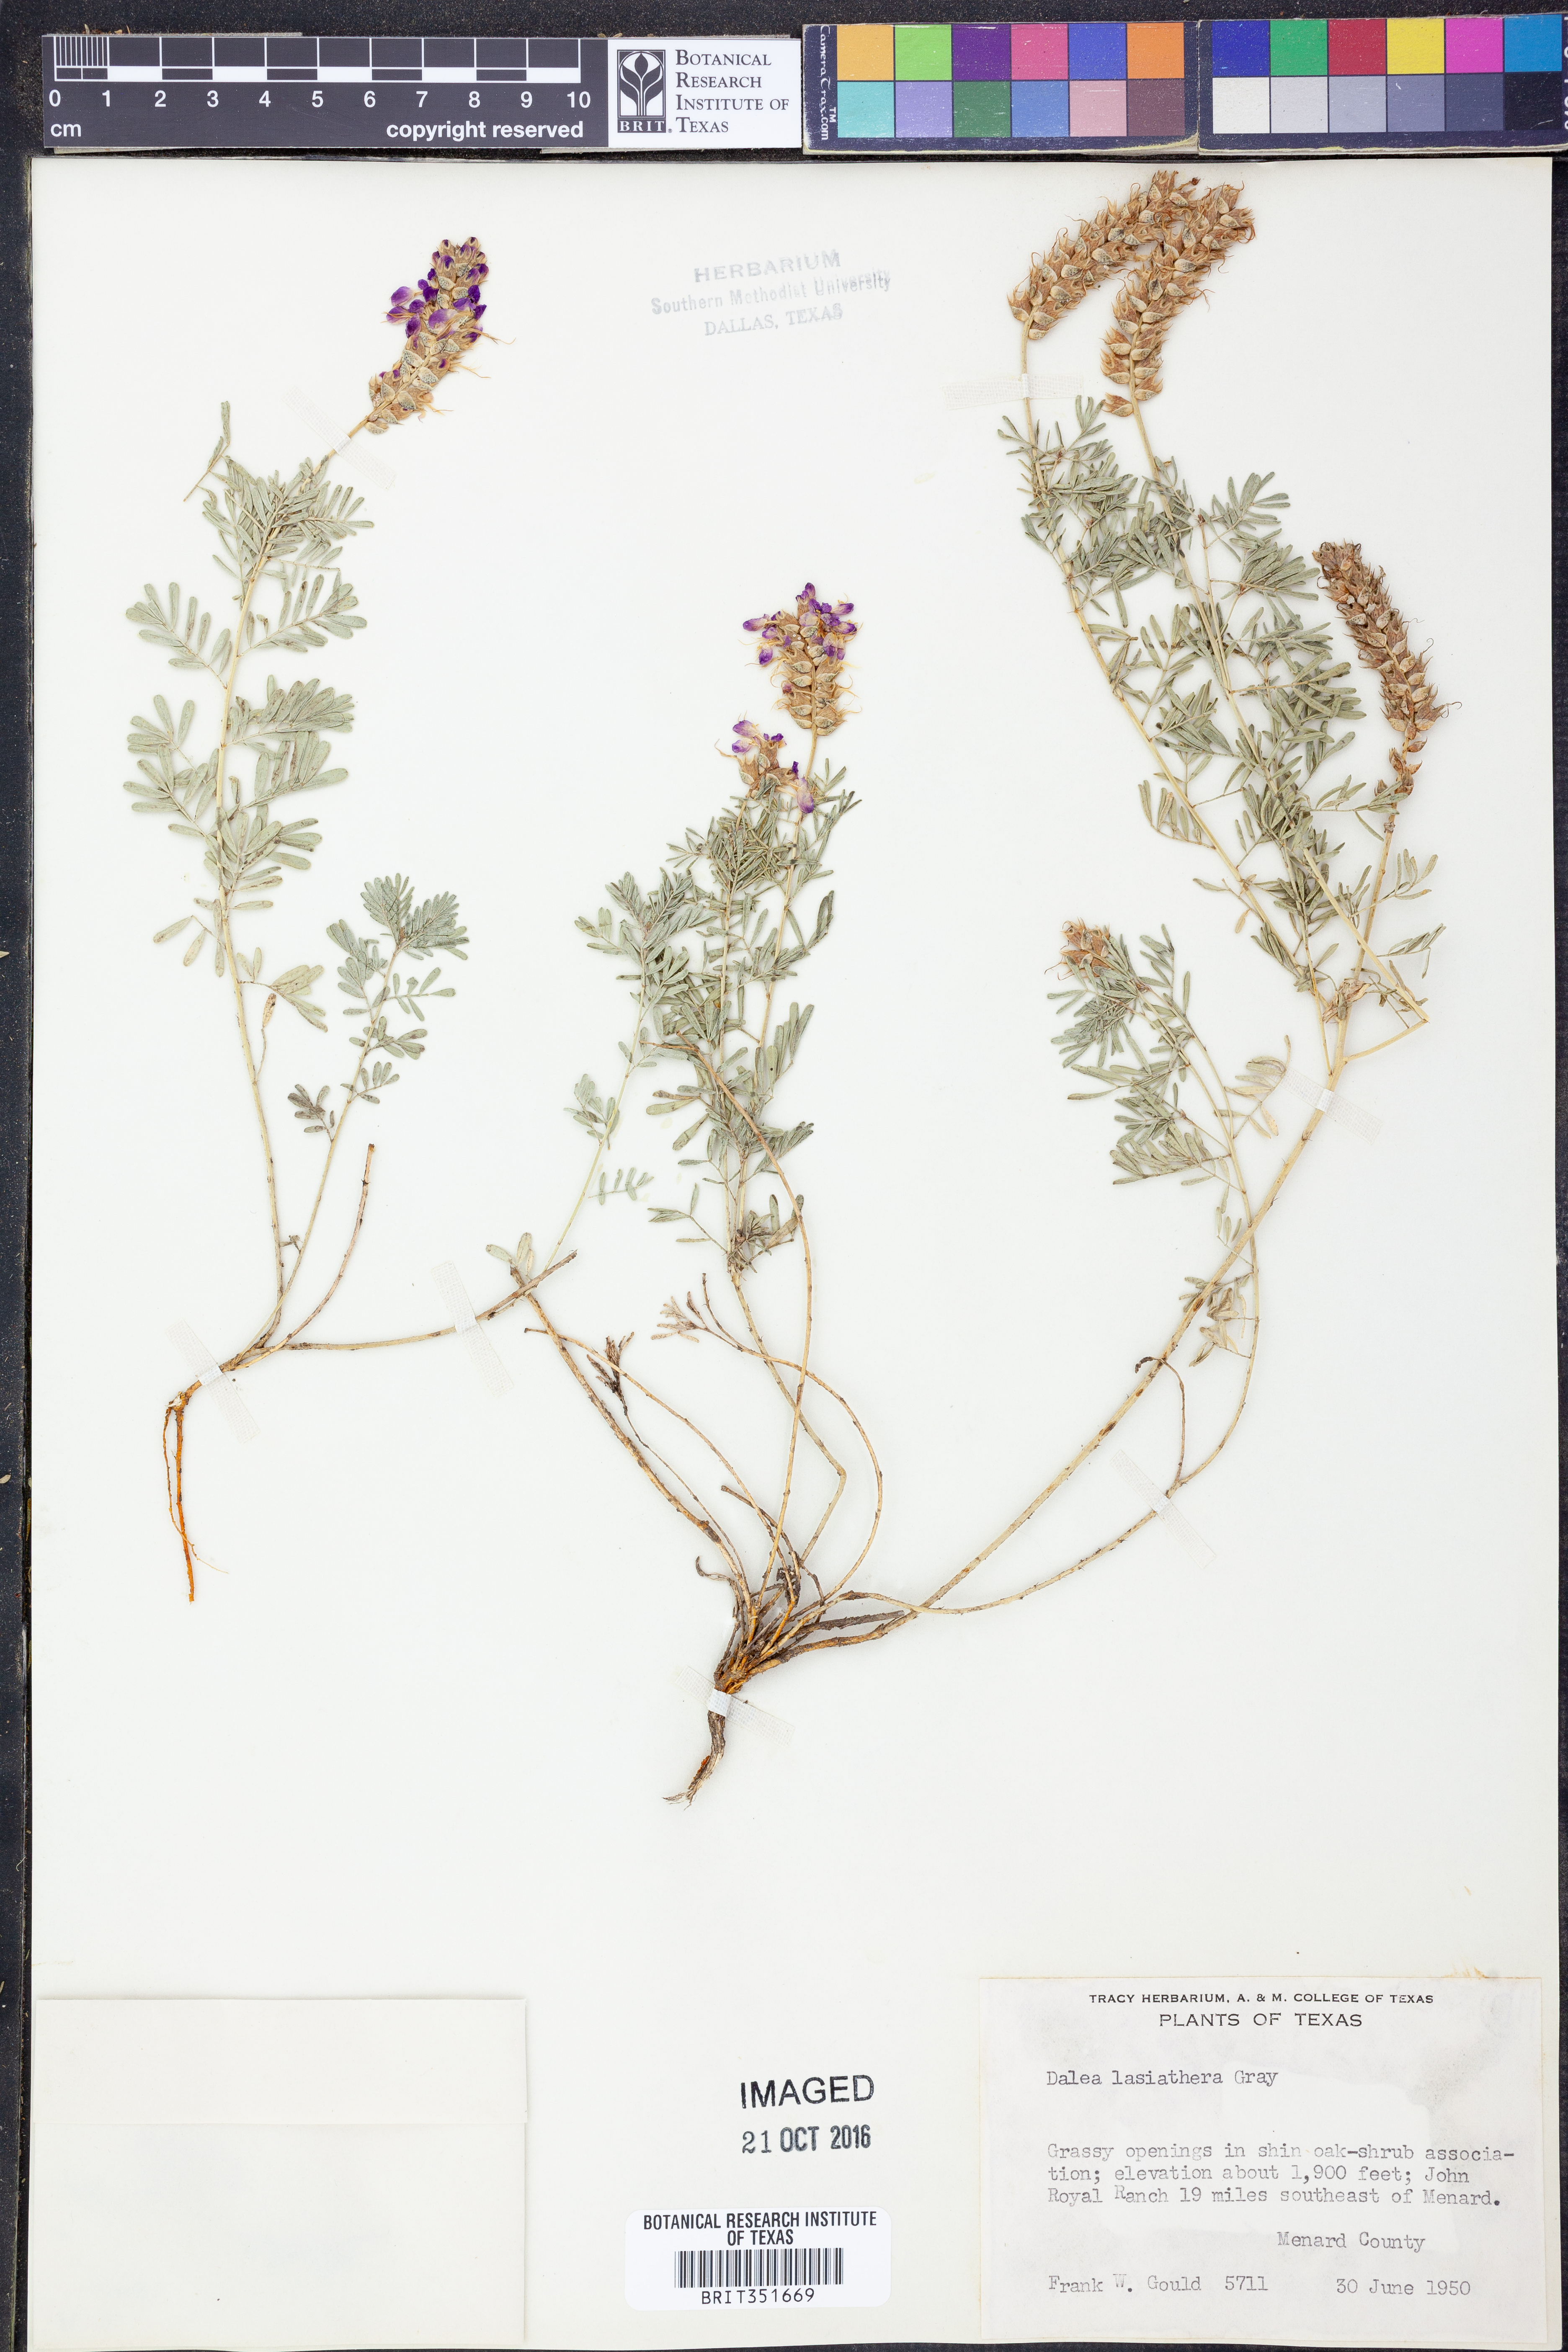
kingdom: Plantae
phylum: Tracheophyta
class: Magnoliopsida
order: Fabales
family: Fabaceae
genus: Dalea
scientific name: Dalea lasiathera
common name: Purple prairie-clover
